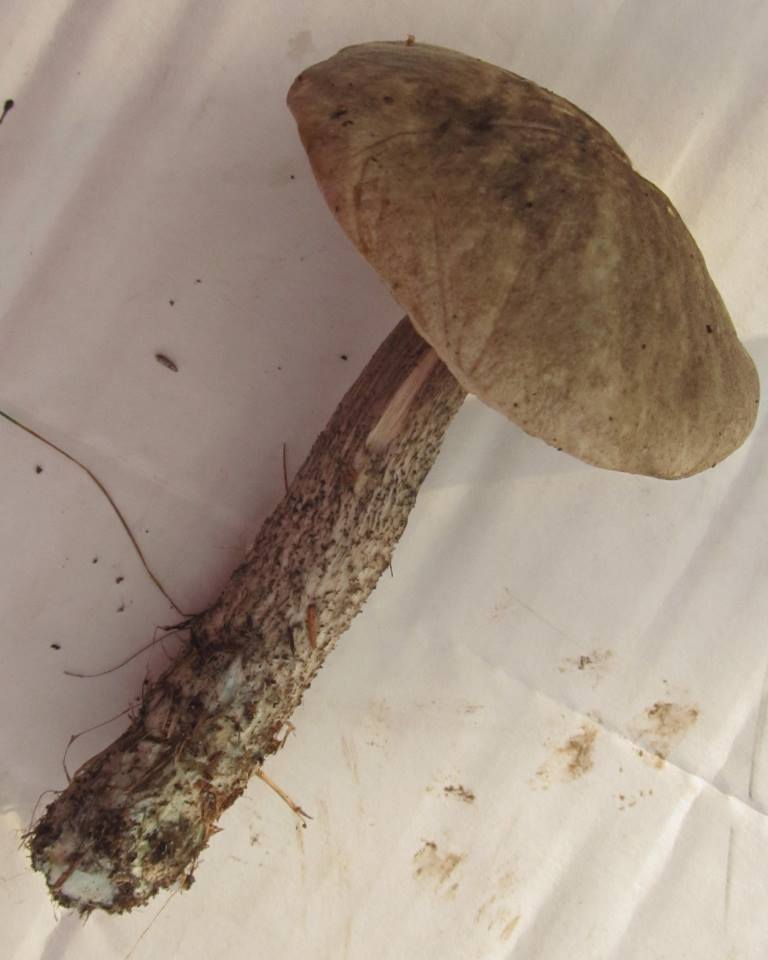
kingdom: Fungi
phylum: Basidiomycota
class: Agaricomycetes
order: Boletales
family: Boletaceae
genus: Leccinum
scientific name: Leccinum variicolor
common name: flammet skælrørhat
